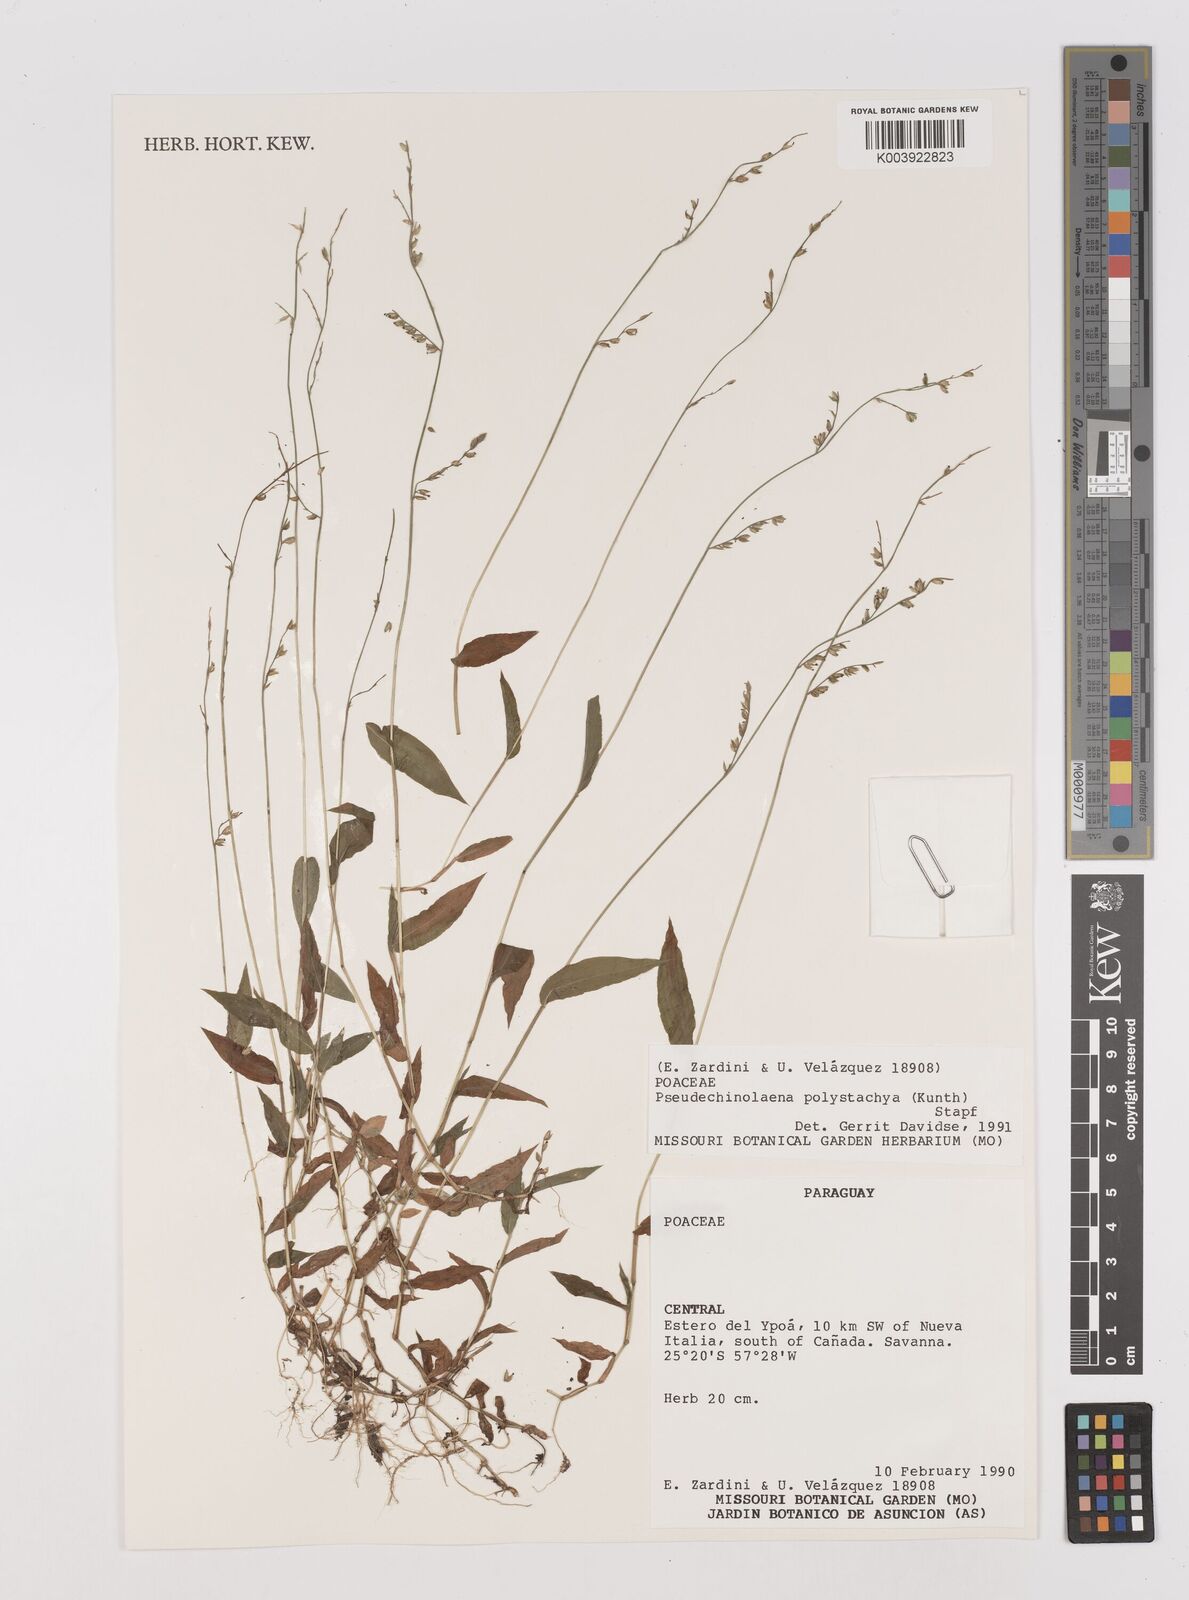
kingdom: Plantae
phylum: Tracheophyta
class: Liliopsida
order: Poales
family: Poaceae
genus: Pseudechinolaena
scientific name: Pseudechinolaena polystachya
